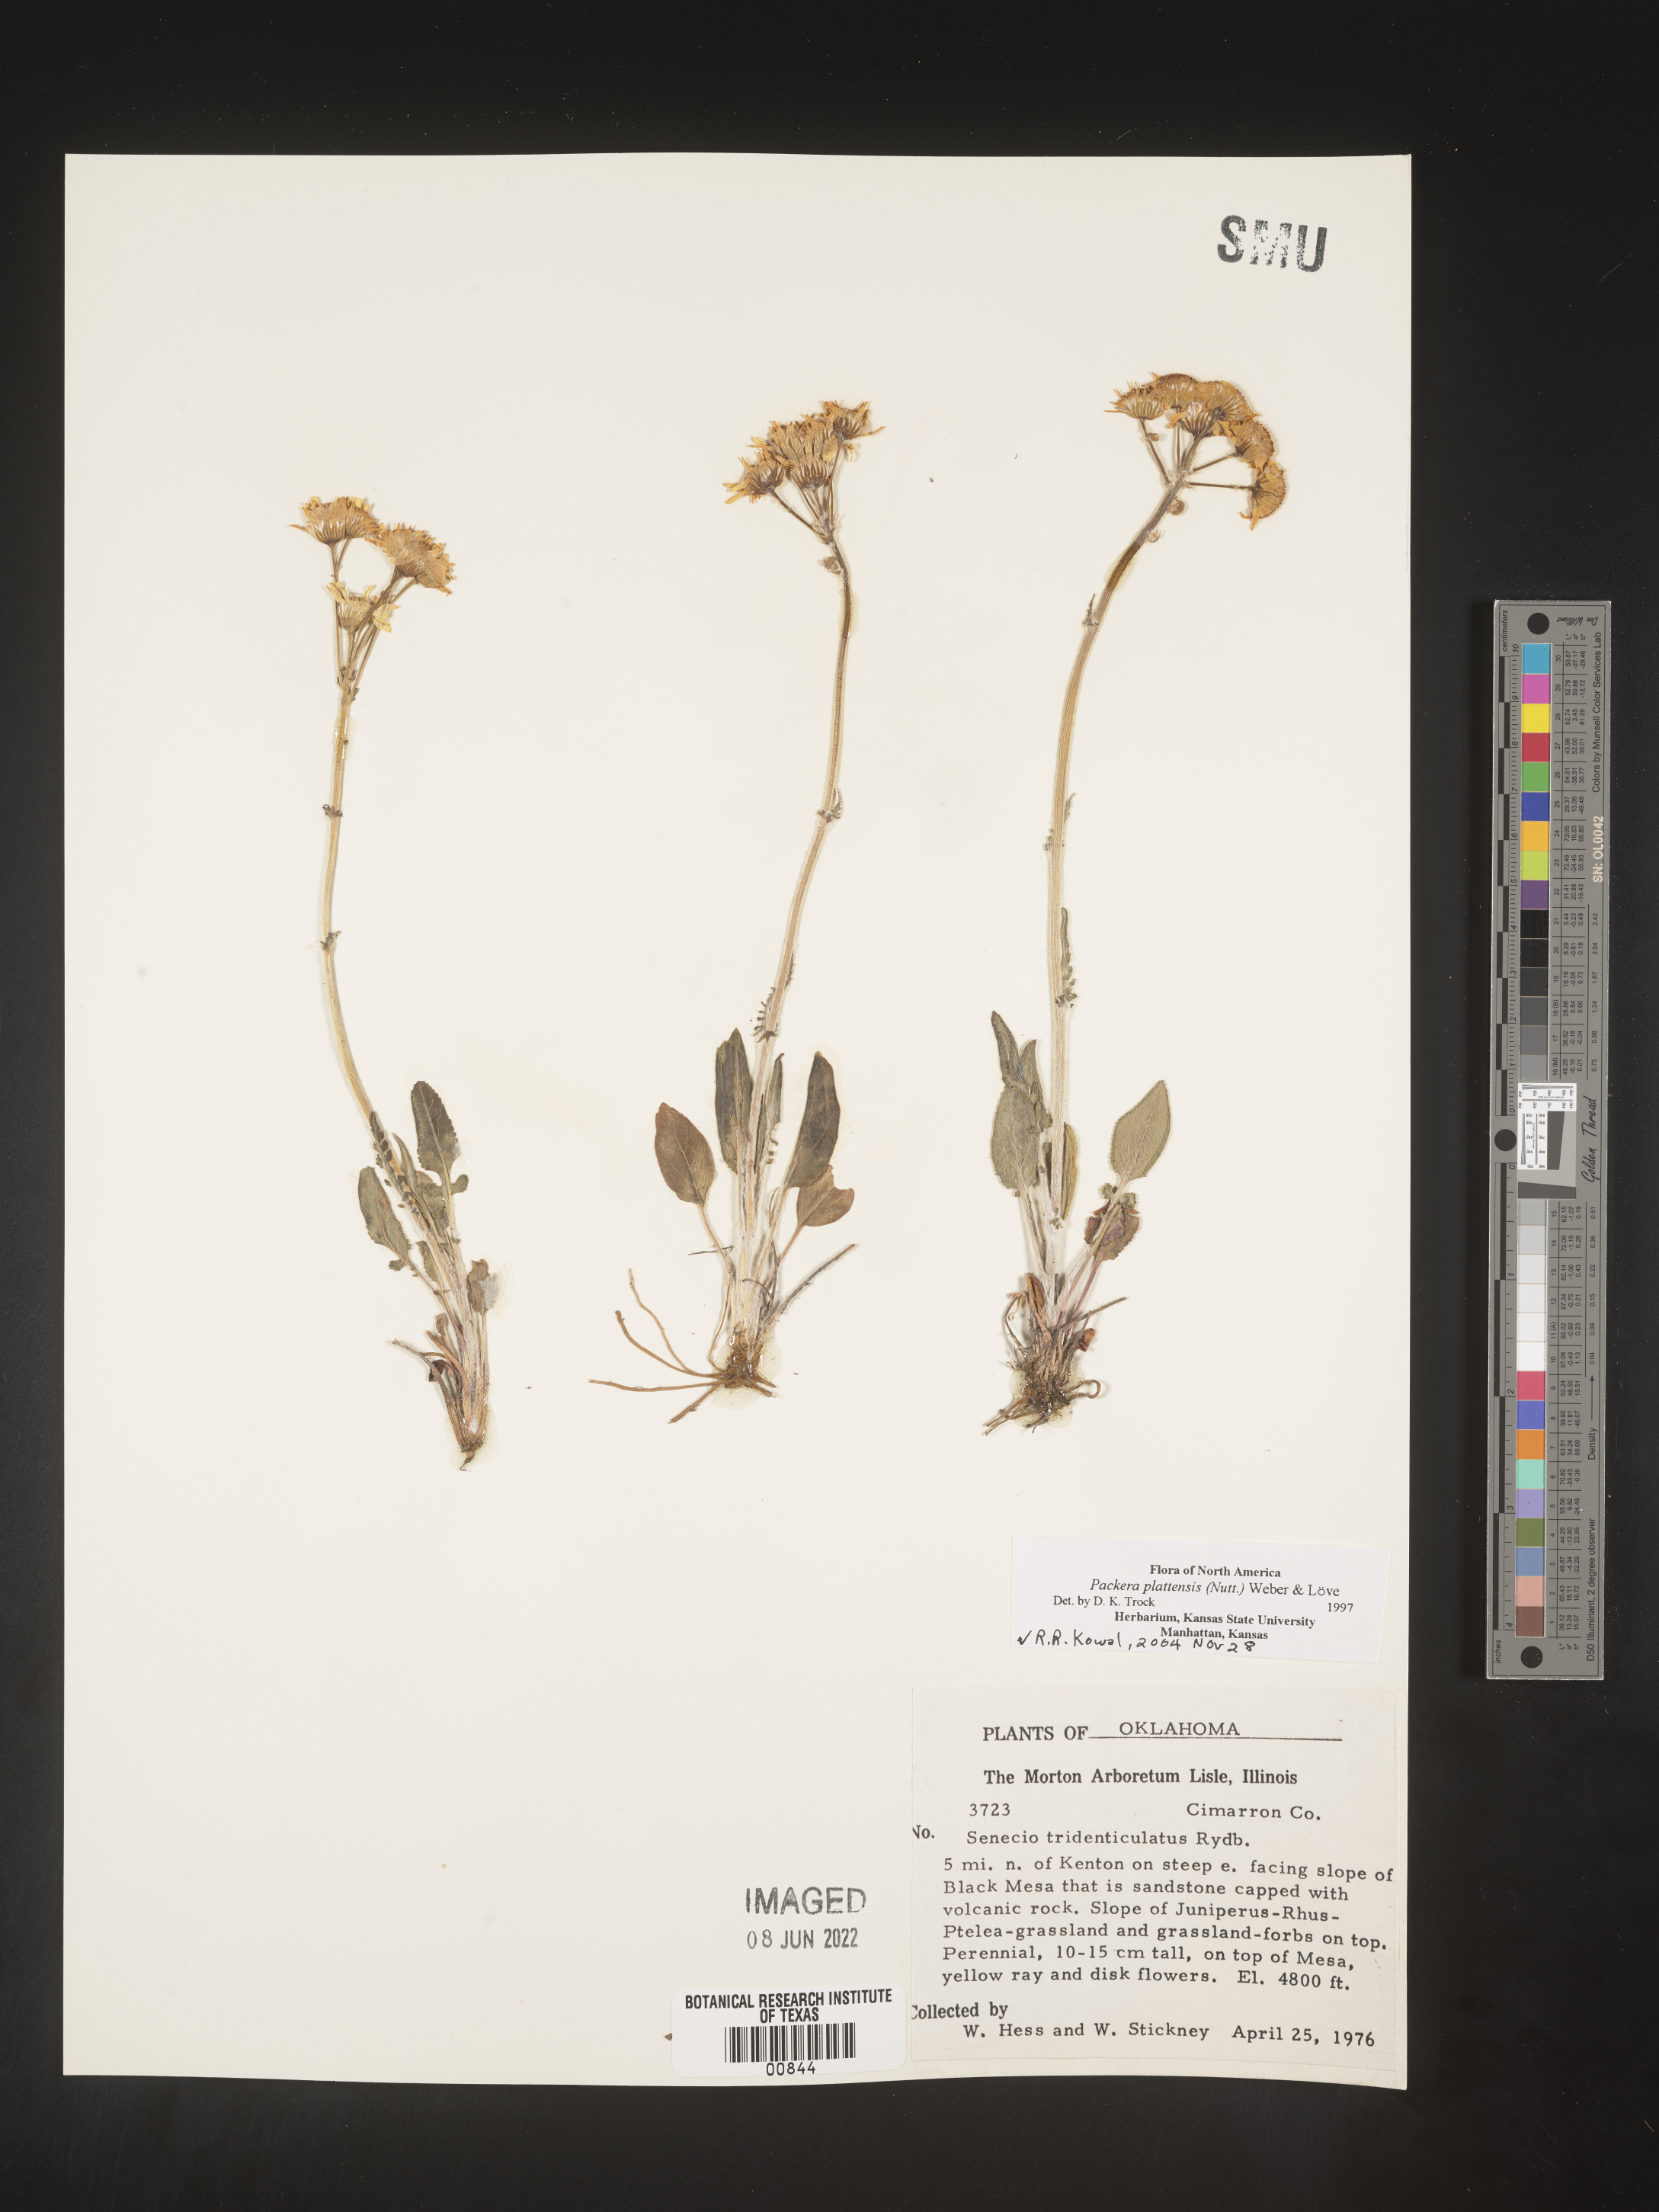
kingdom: Plantae
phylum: Tracheophyta
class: Magnoliopsida
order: Asterales
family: Asteraceae
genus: Packera
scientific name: Packera plattensis
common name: Prairie groundsel
